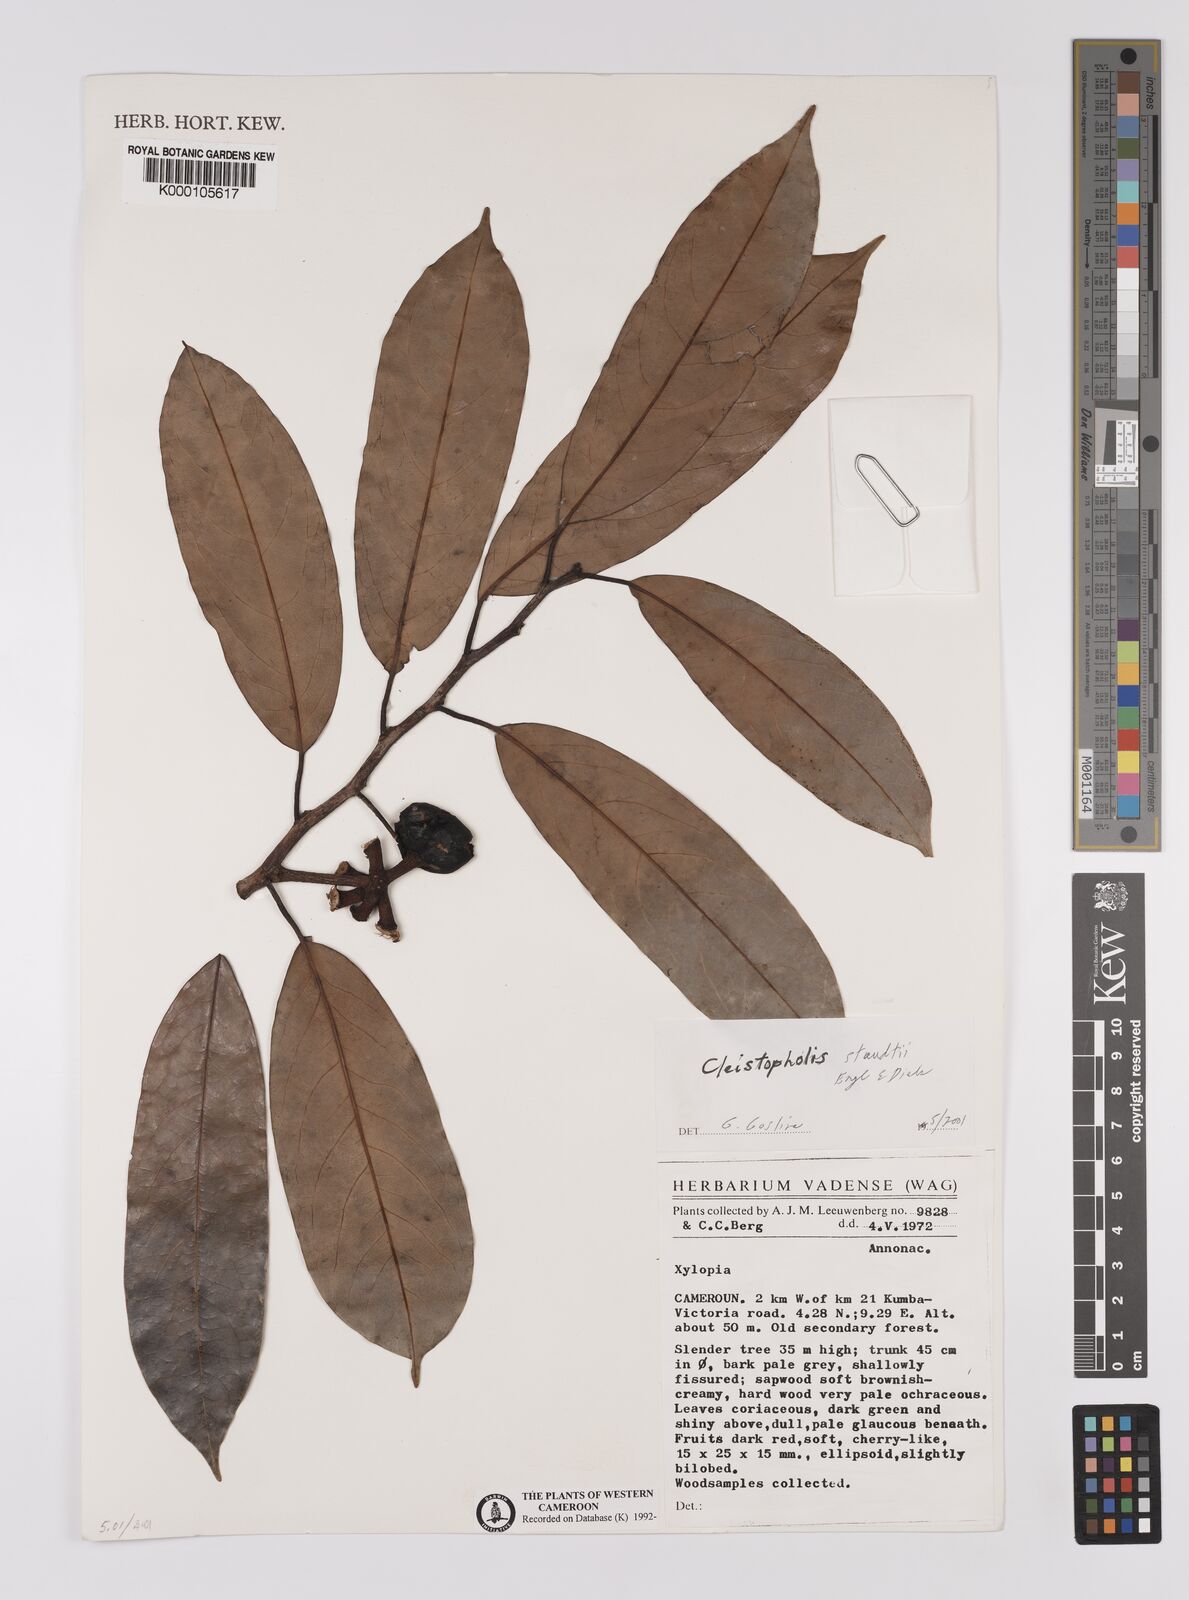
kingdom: Plantae
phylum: Tracheophyta
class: Magnoliopsida
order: Magnoliales
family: Annonaceae
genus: Cleistopholis
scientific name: Cleistopholis staudtii
